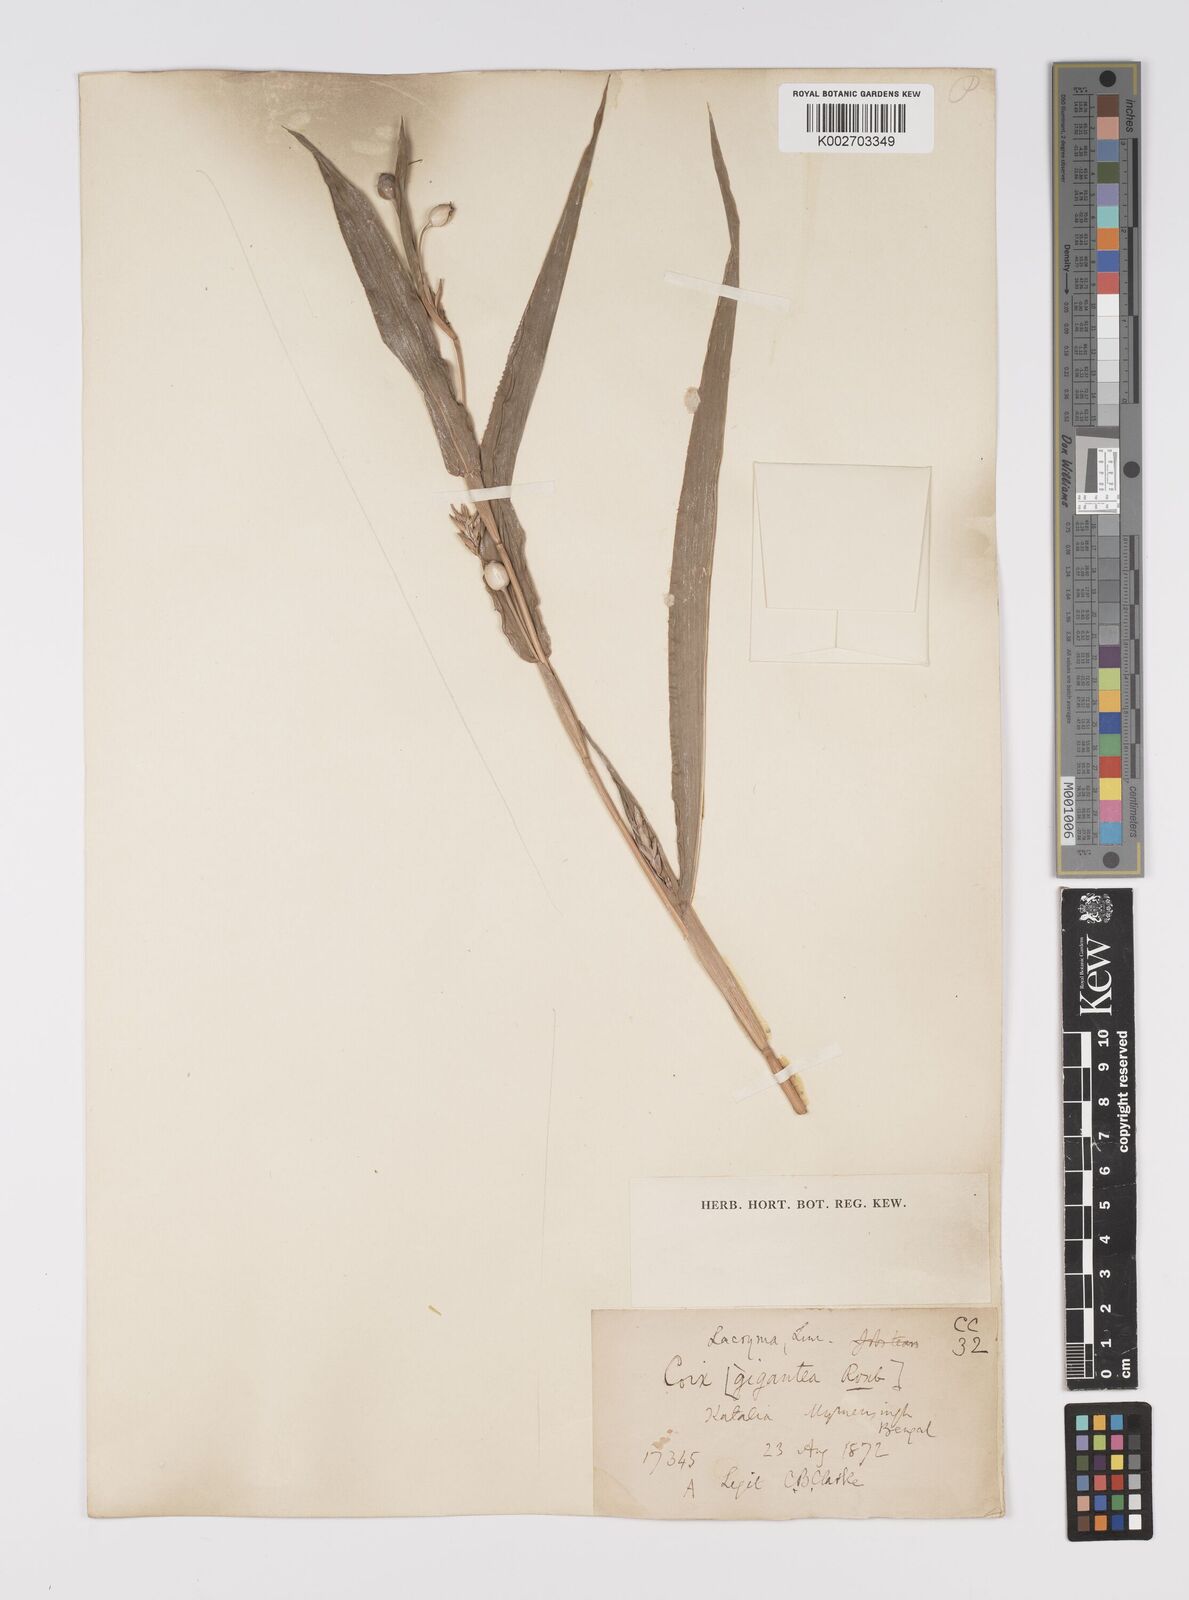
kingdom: Plantae
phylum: Tracheophyta
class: Liliopsida
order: Poales
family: Poaceae
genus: Coix
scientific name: Coix lacryma-jobi
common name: Job's tears
